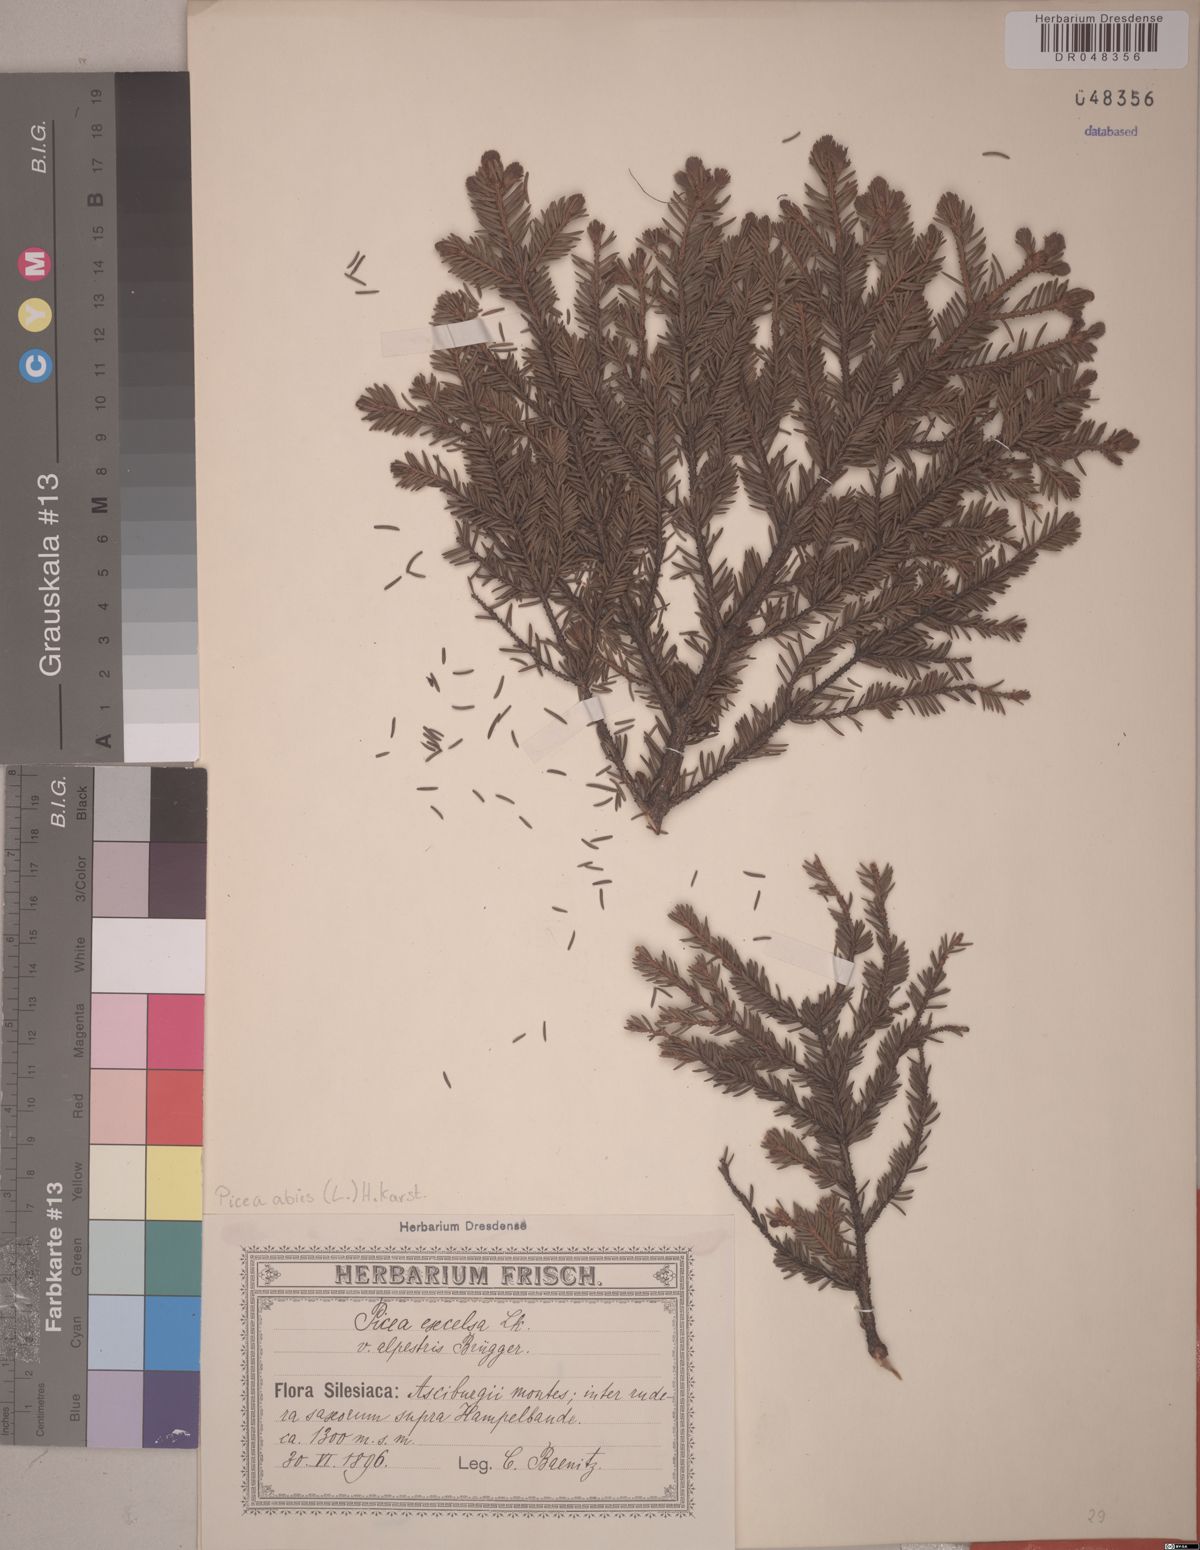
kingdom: Plantae
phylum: Tracheophyta
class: Pinopsida
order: Pinales
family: Pinaceae
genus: Picea
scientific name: Picea abies
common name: Norway spruce
